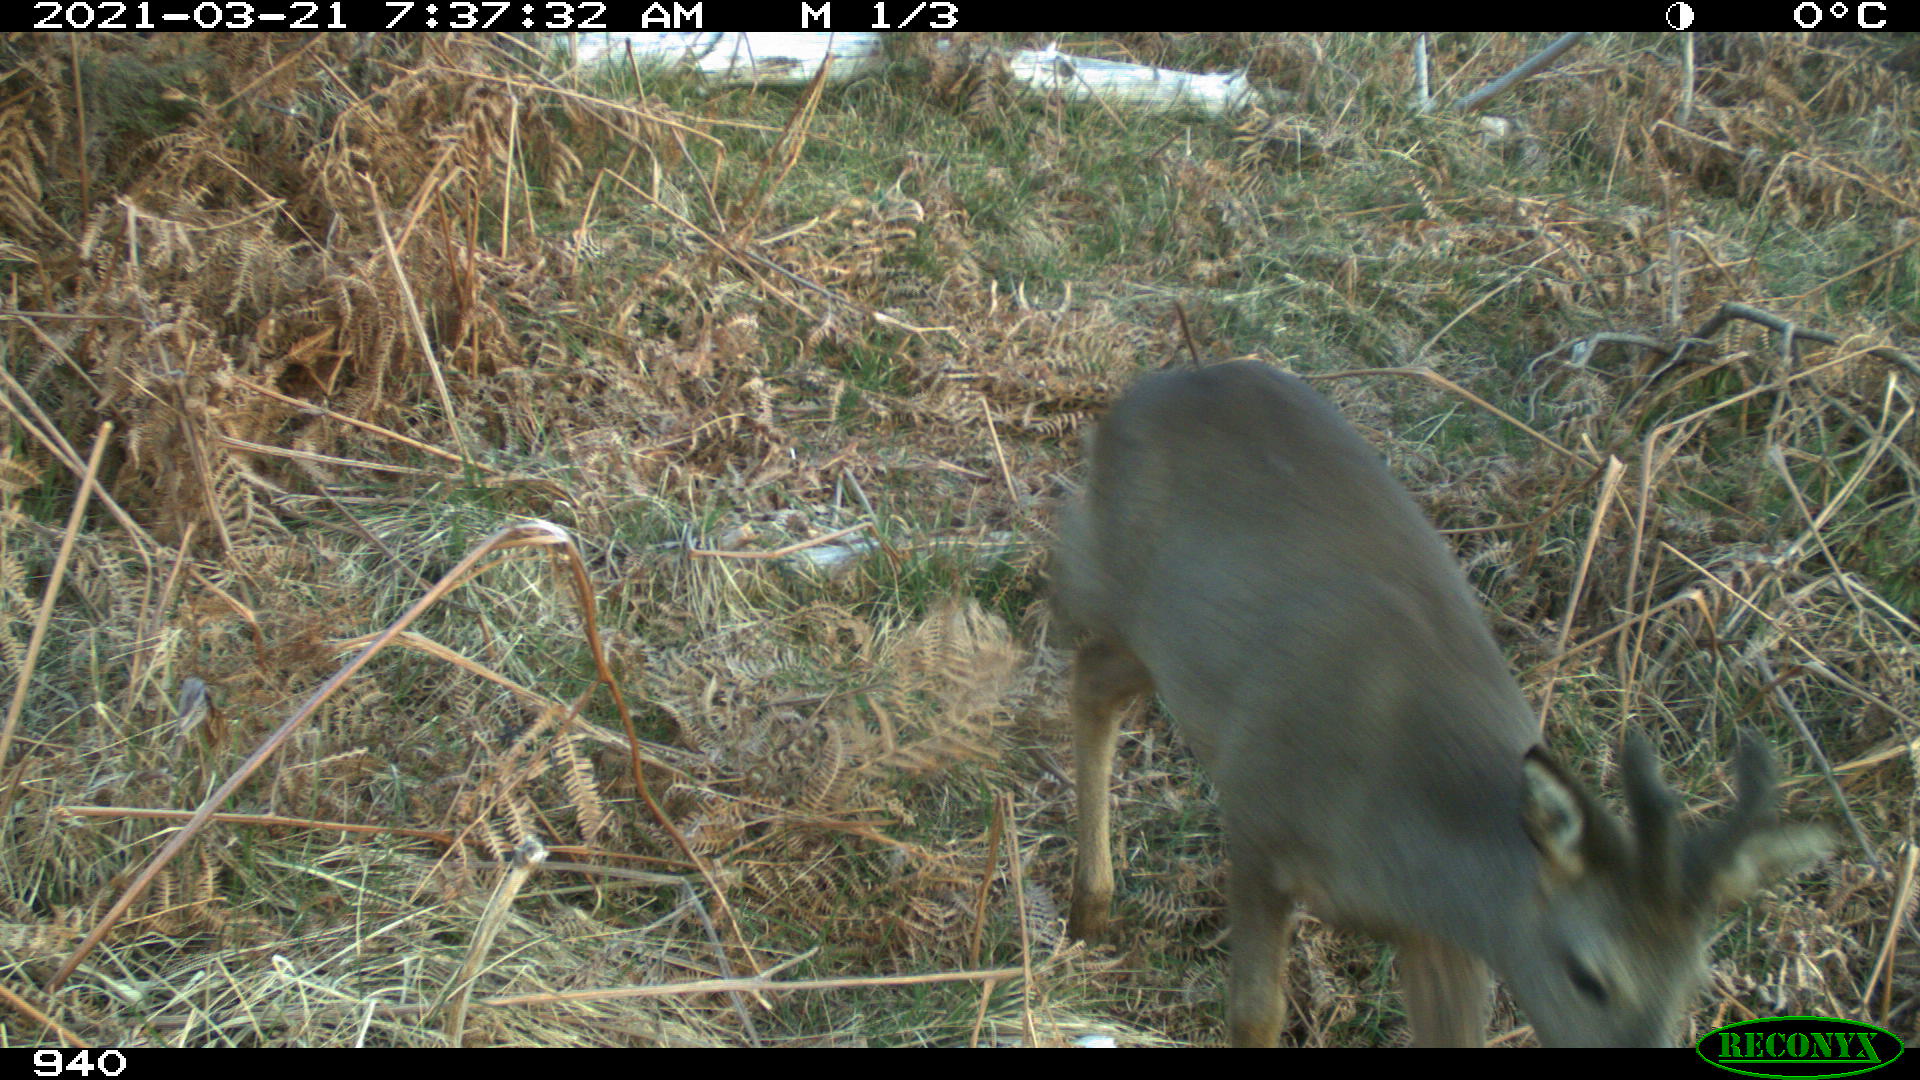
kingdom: Animalia
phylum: Chordata
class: Mammalia
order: Artiodactyla
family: Cervidae
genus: Capreolus
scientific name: Capreolus capreolus
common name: Western roe deer
